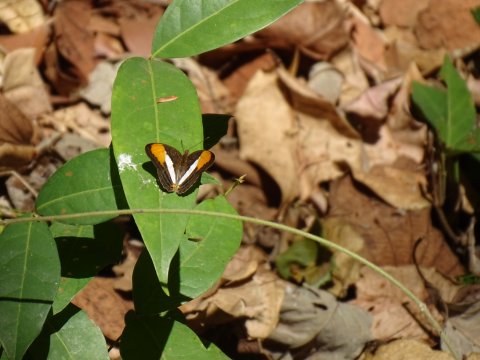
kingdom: Animalia
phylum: Arthropoda
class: Insecta
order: Lepidoptera
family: Nymphalidae
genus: Limenitis
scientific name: Limenitis cytherea
